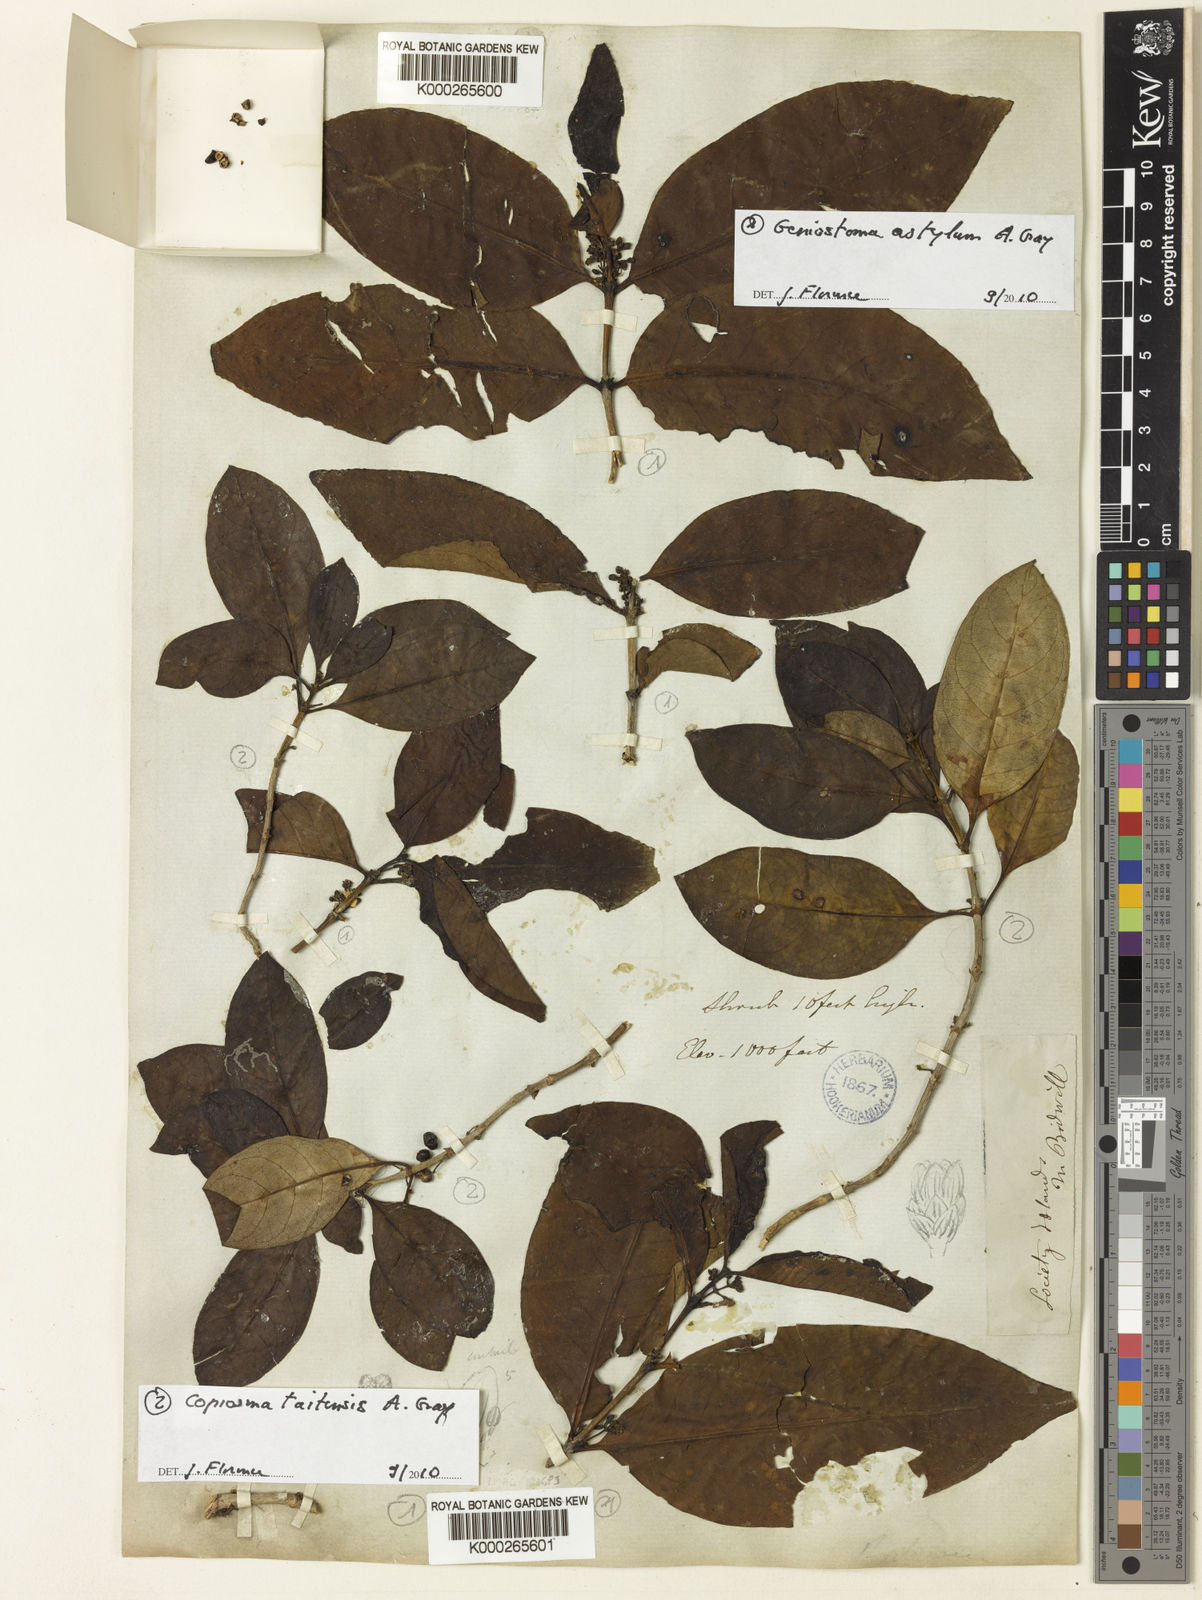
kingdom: Plantae
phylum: Tracheophyta
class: Magnoliopsida
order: Gentianales
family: Loganiaceae
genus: Geniostoma
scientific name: Geniostoma rupestre
